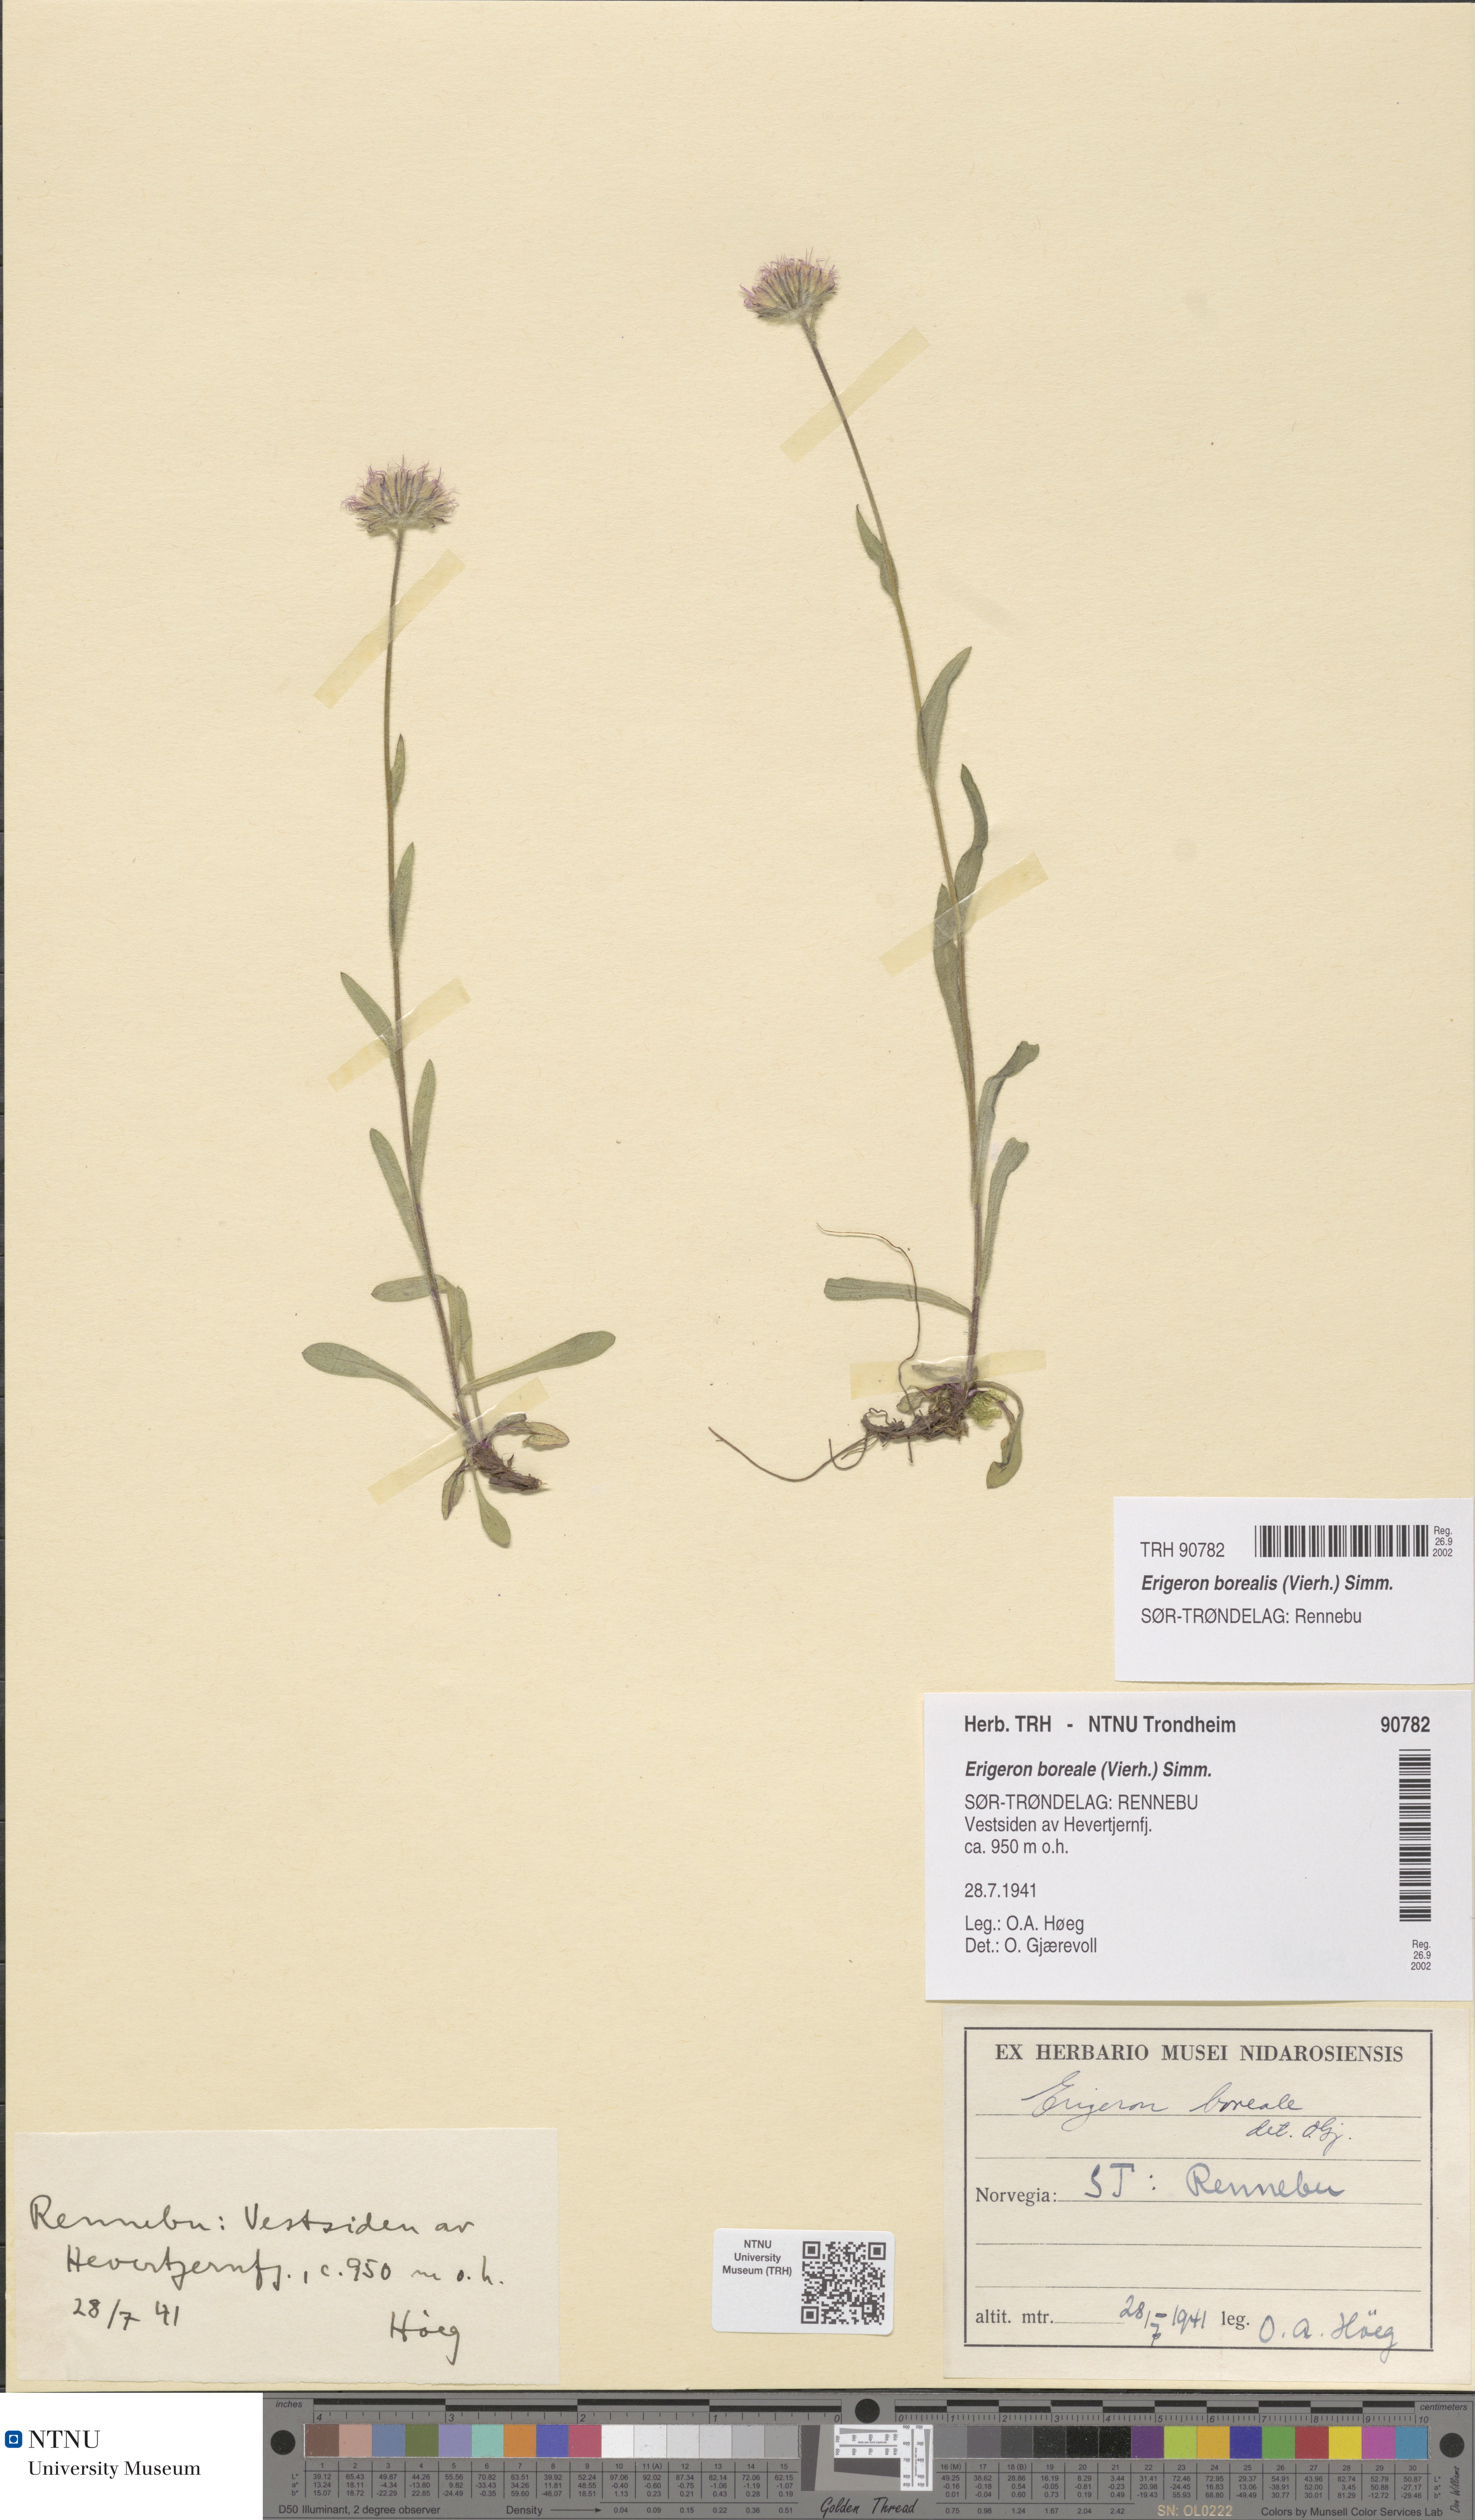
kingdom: Plantae
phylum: Tracheophyta
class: Magnoliopsida
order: Asterales
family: Asteraceae
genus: Erigeron
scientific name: Erigeron borealis
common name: Alpine fleabane
